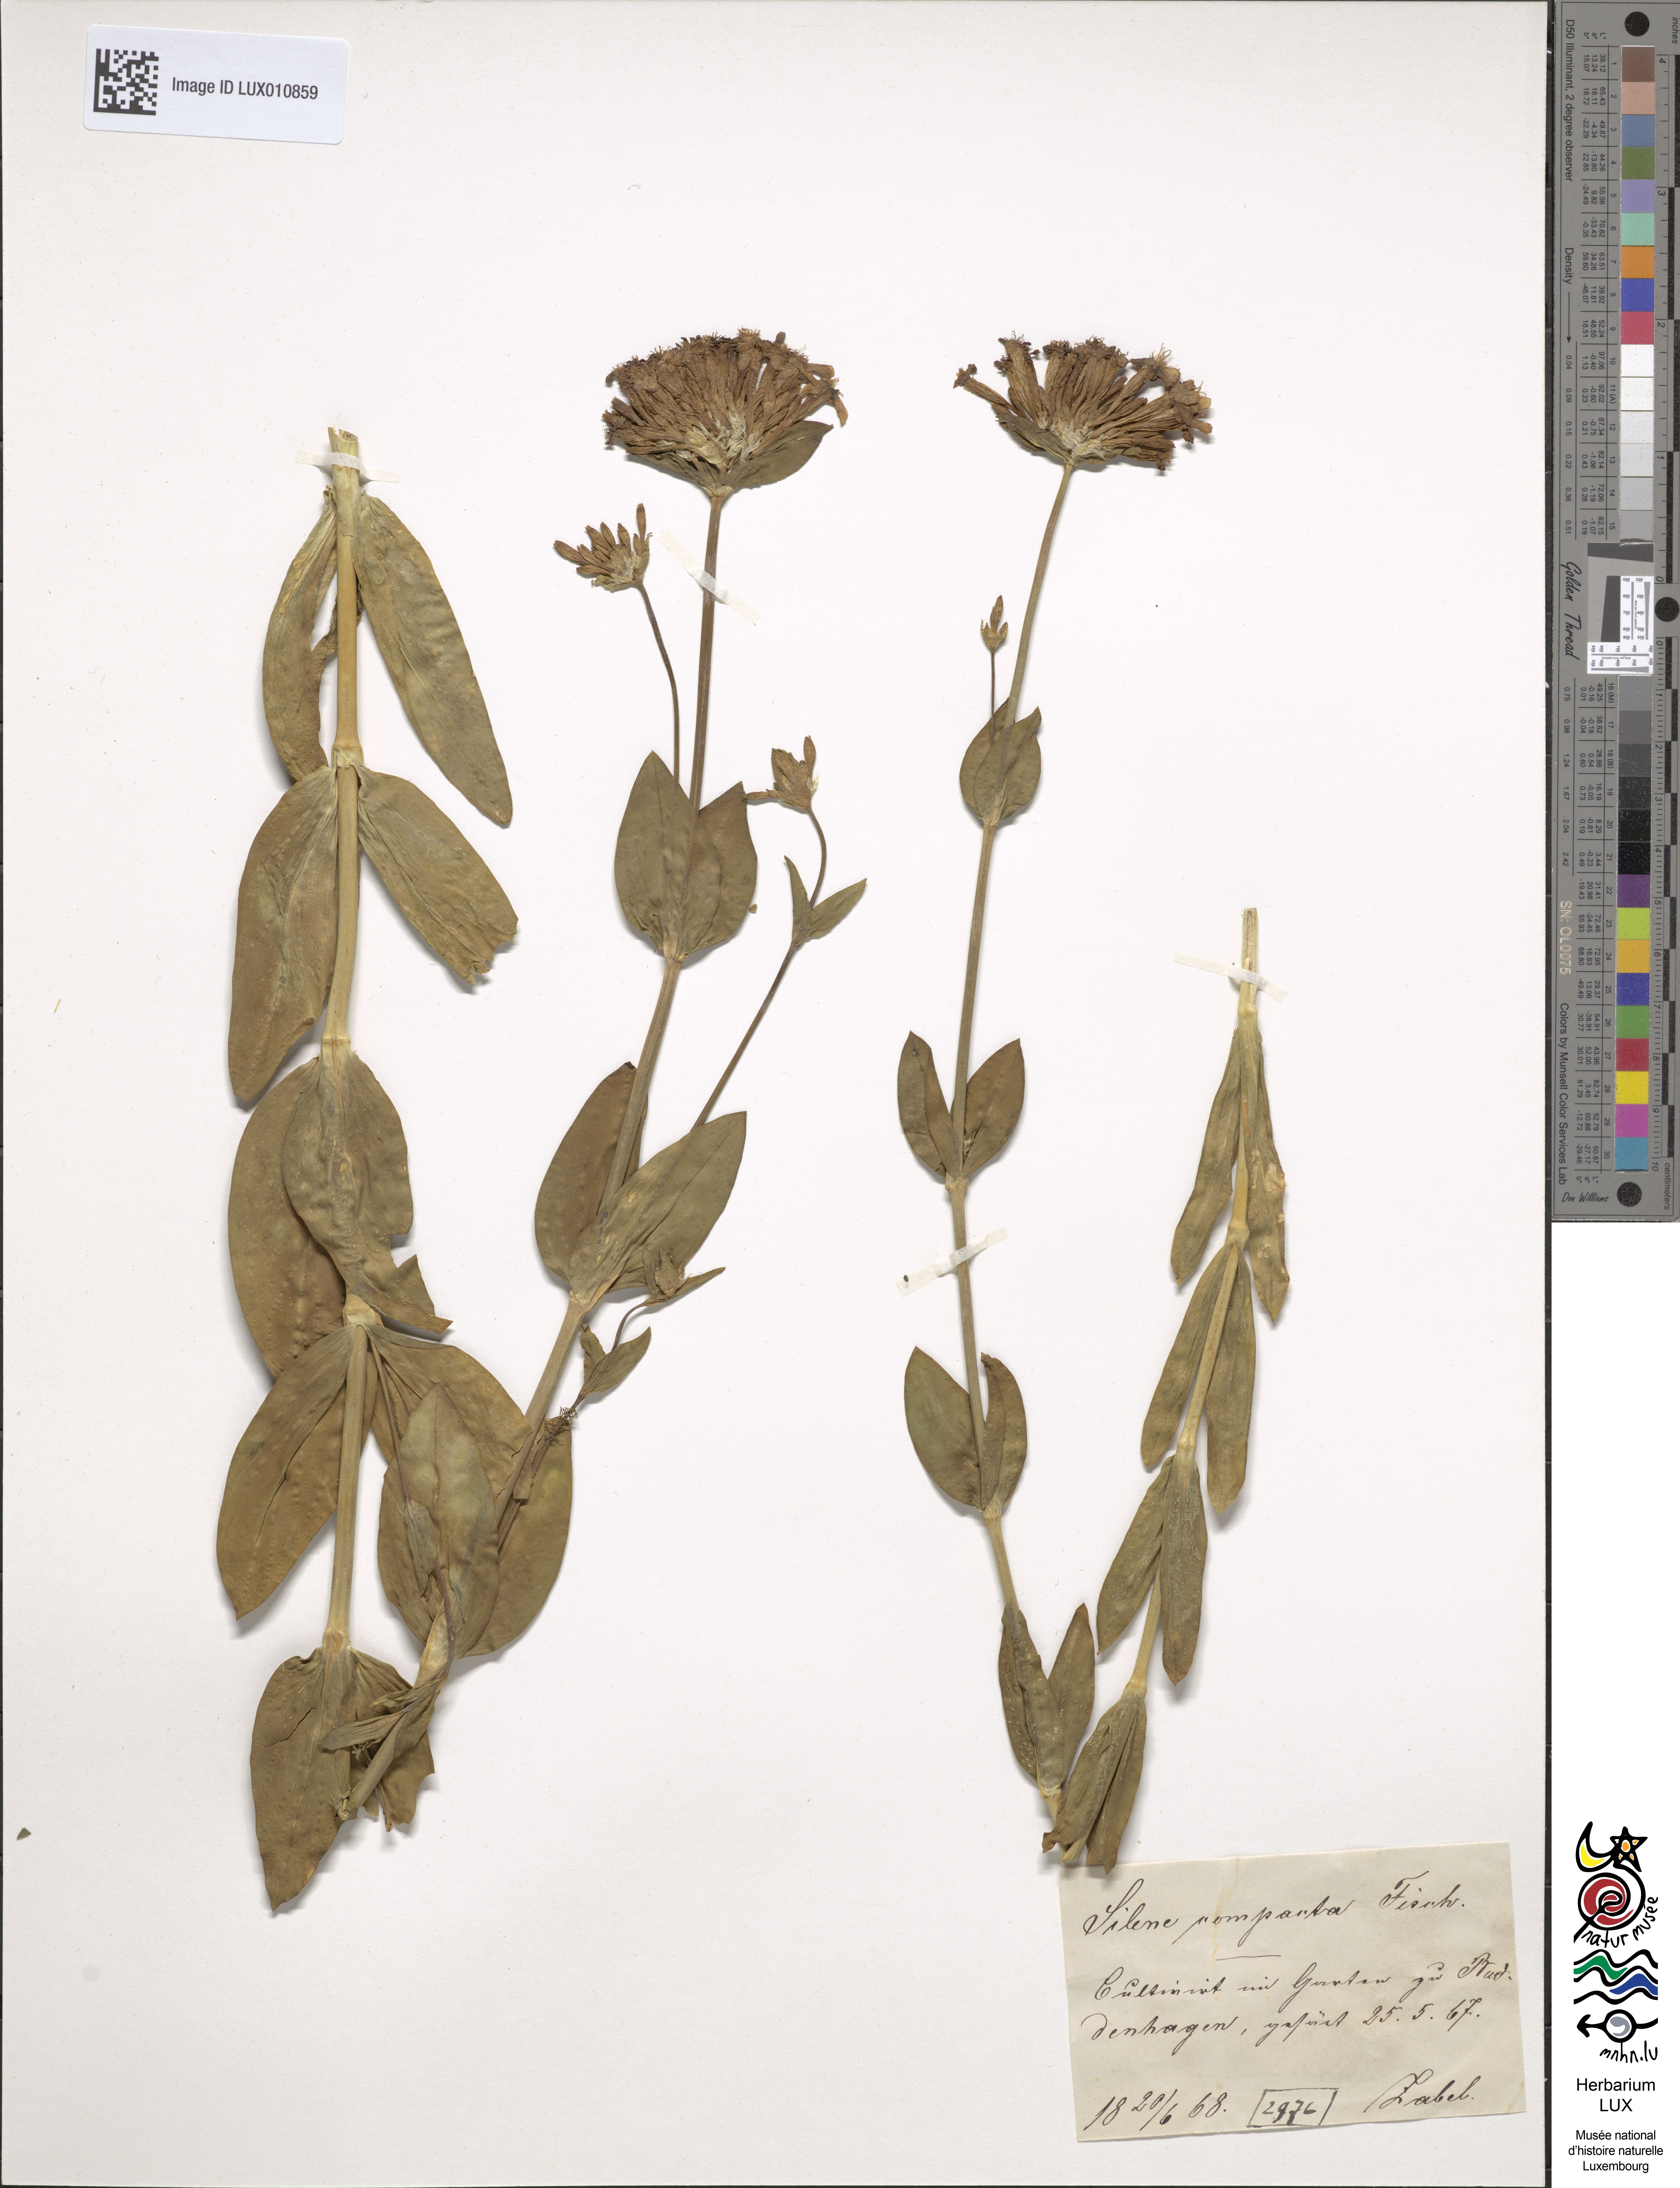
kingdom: Plantae
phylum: Tracheophyta
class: Magnoliopsida
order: Caryophyllales
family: Caryophyllaceae
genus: Atocion
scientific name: Atocion compactum
